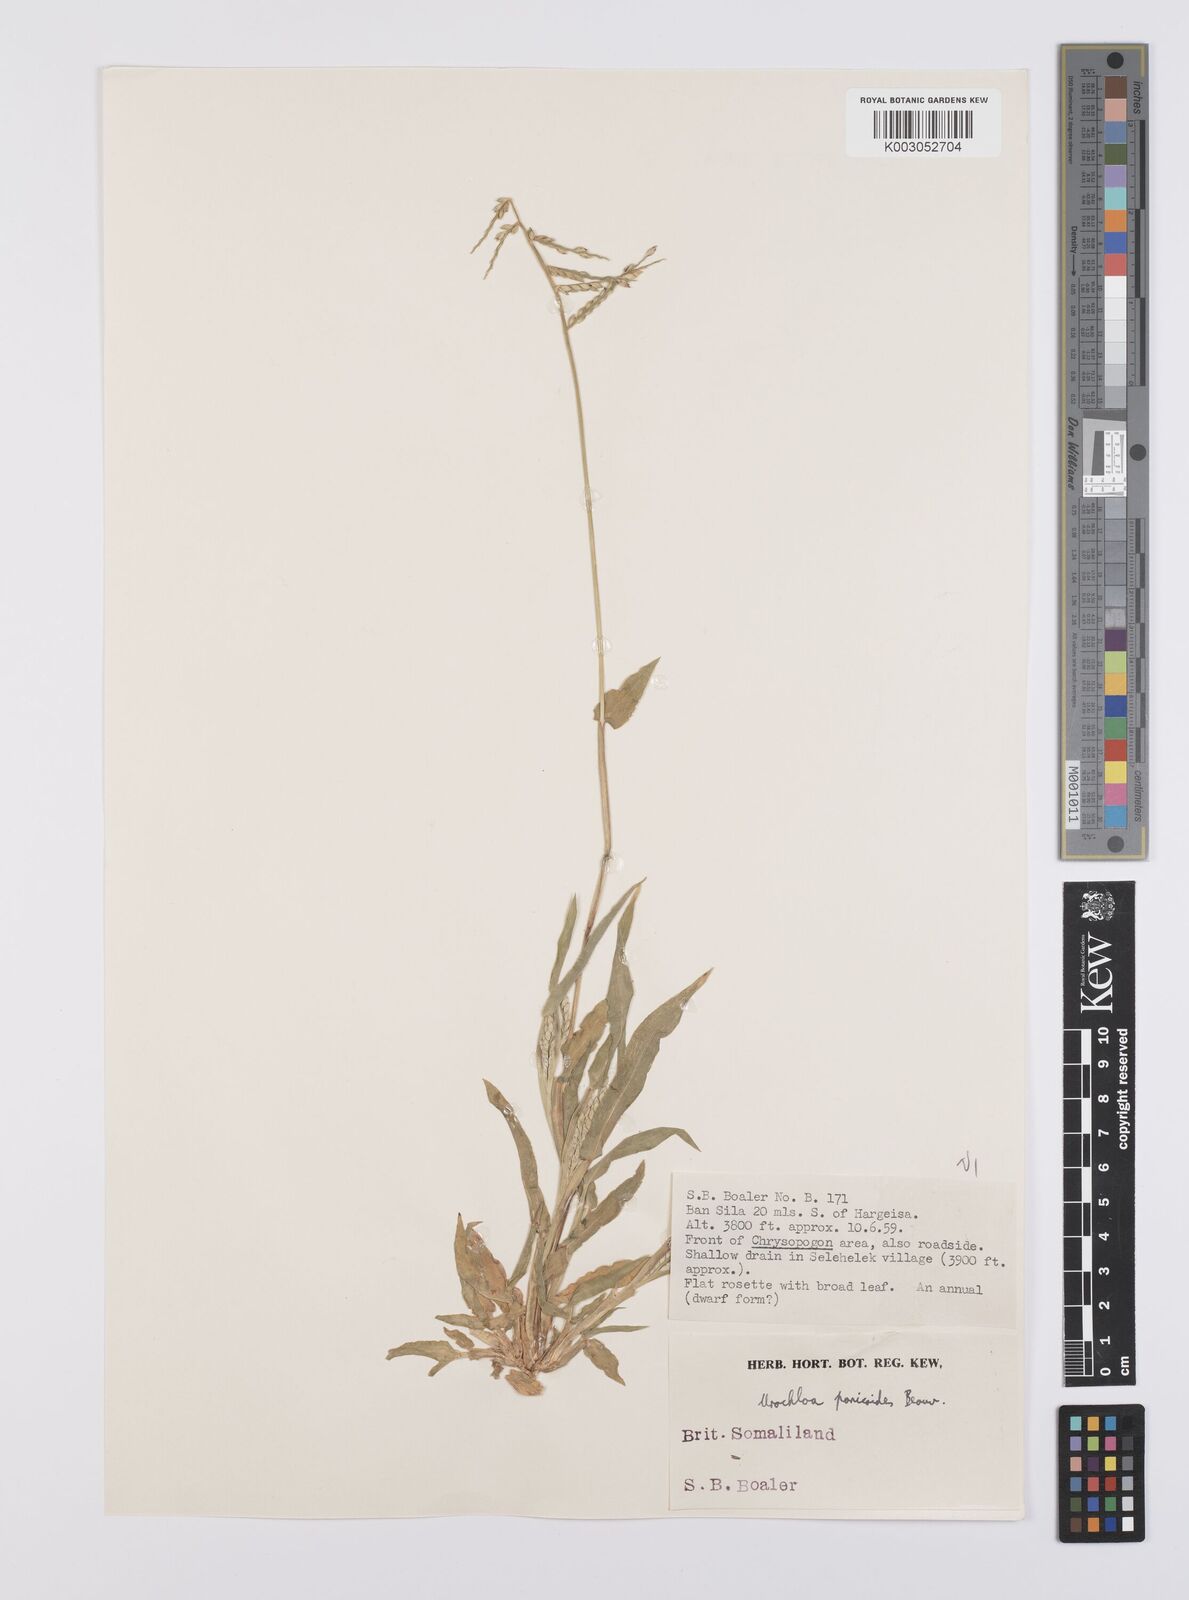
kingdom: Plantae
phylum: Tracheophyta
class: Liliopsida
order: Poales
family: Poaceae
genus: Urochloa
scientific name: Urochloa panicoides
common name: Sharp-flowered signal-grass
